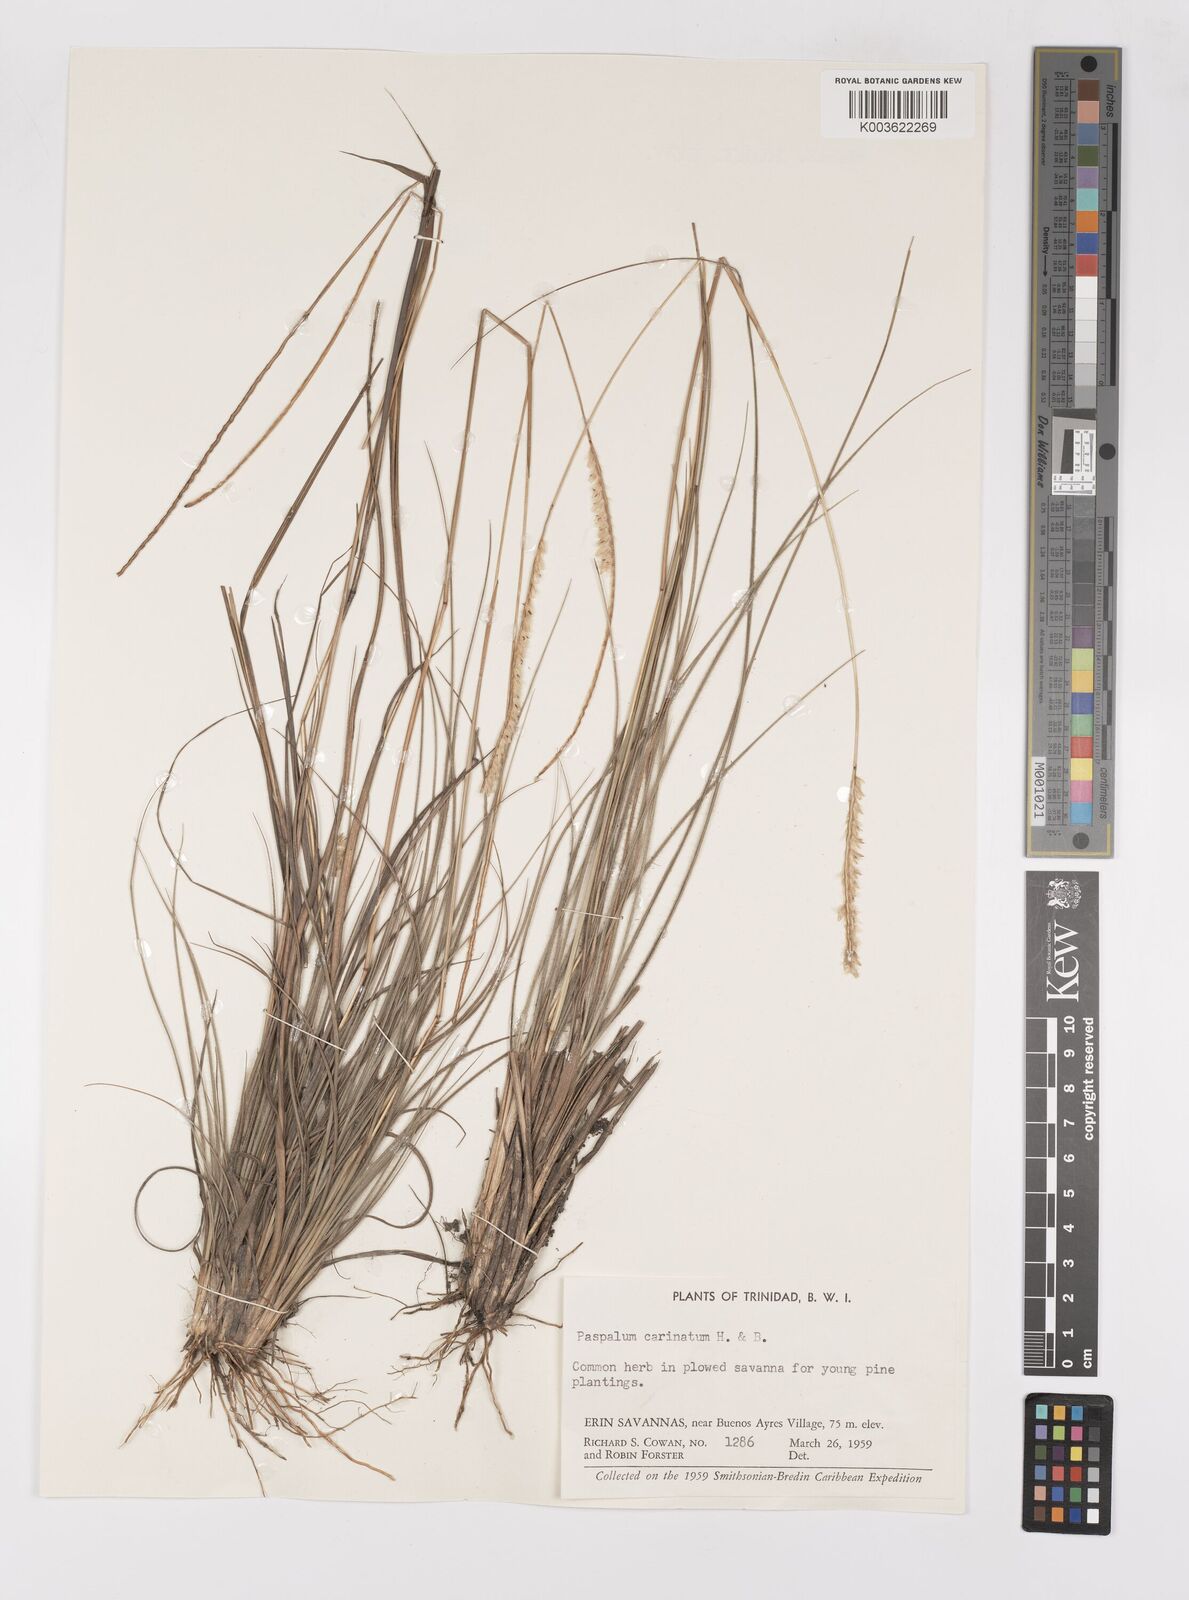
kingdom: Plantae
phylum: Tracheophyta
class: Liliopsida
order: Poales
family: Poaceae
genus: Paspalum
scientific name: Paspalum carinatum
